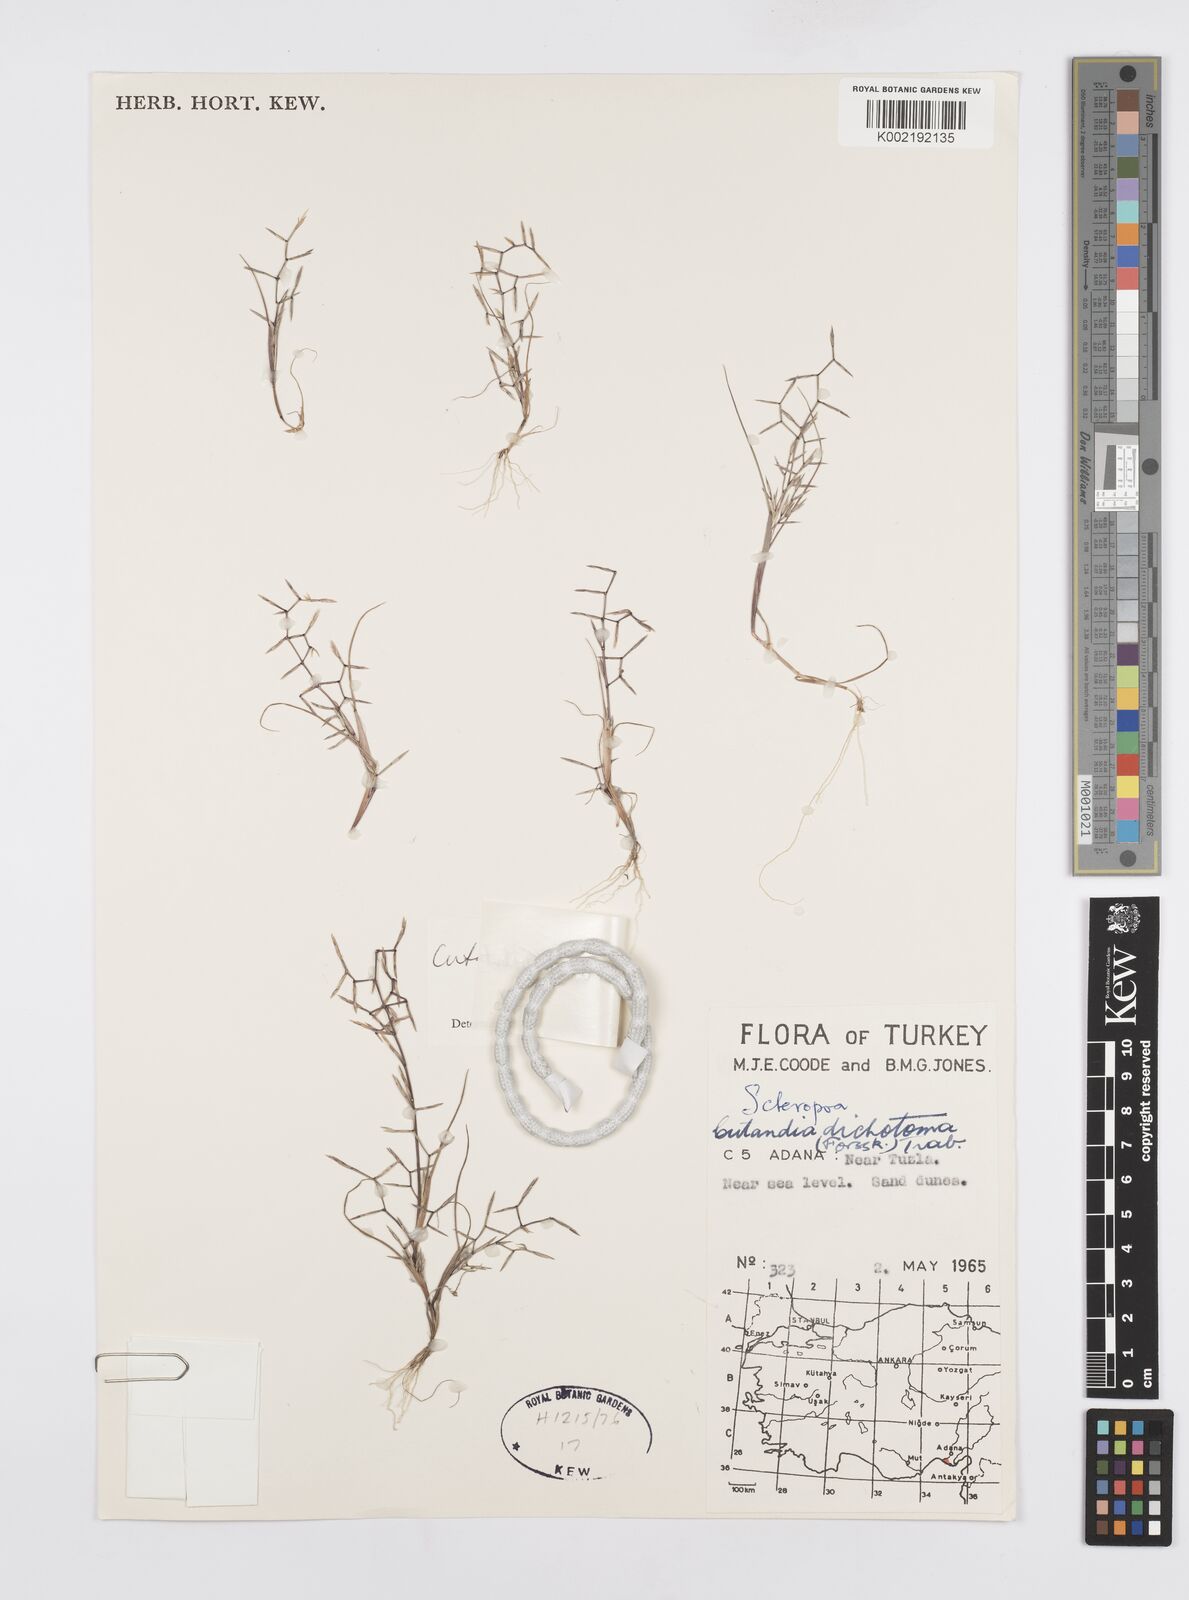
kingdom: Plantae
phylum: Tracheophyta
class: Liliopsida
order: Poales
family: Poaceae
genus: Cutandia
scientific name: Cutandia dichotoma
